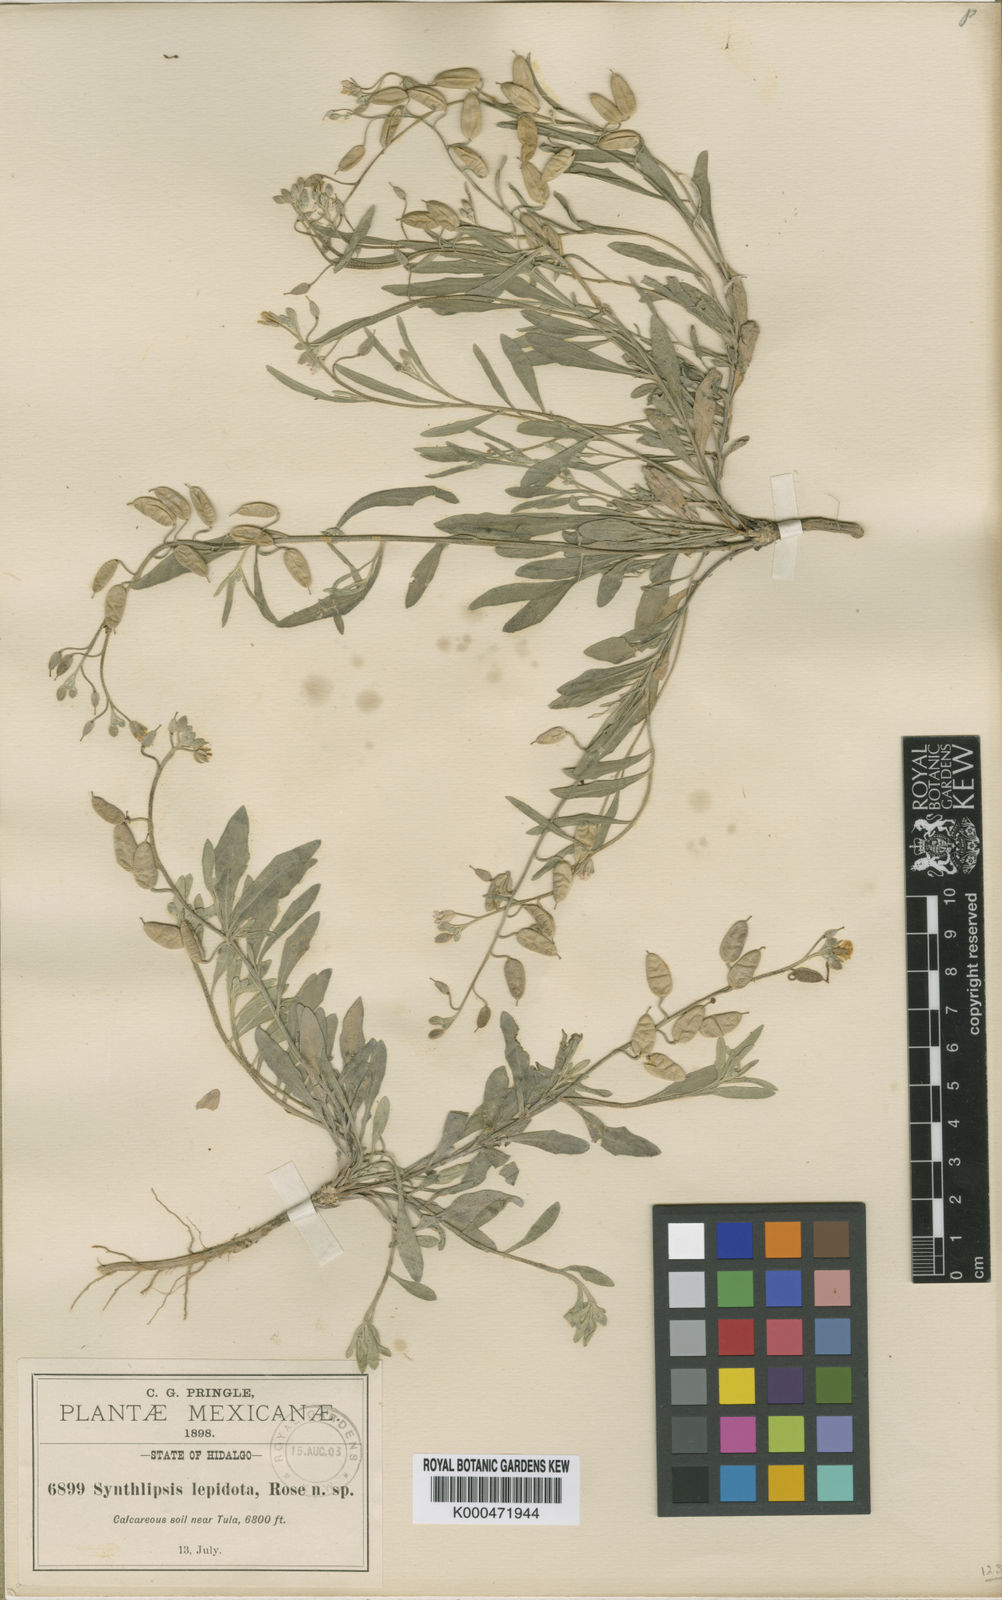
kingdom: Plantae
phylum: Tracheophyta
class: Magnoliopsida
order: Brassicales
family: Brassicaceae
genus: Physaria
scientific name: Physaria rosei
